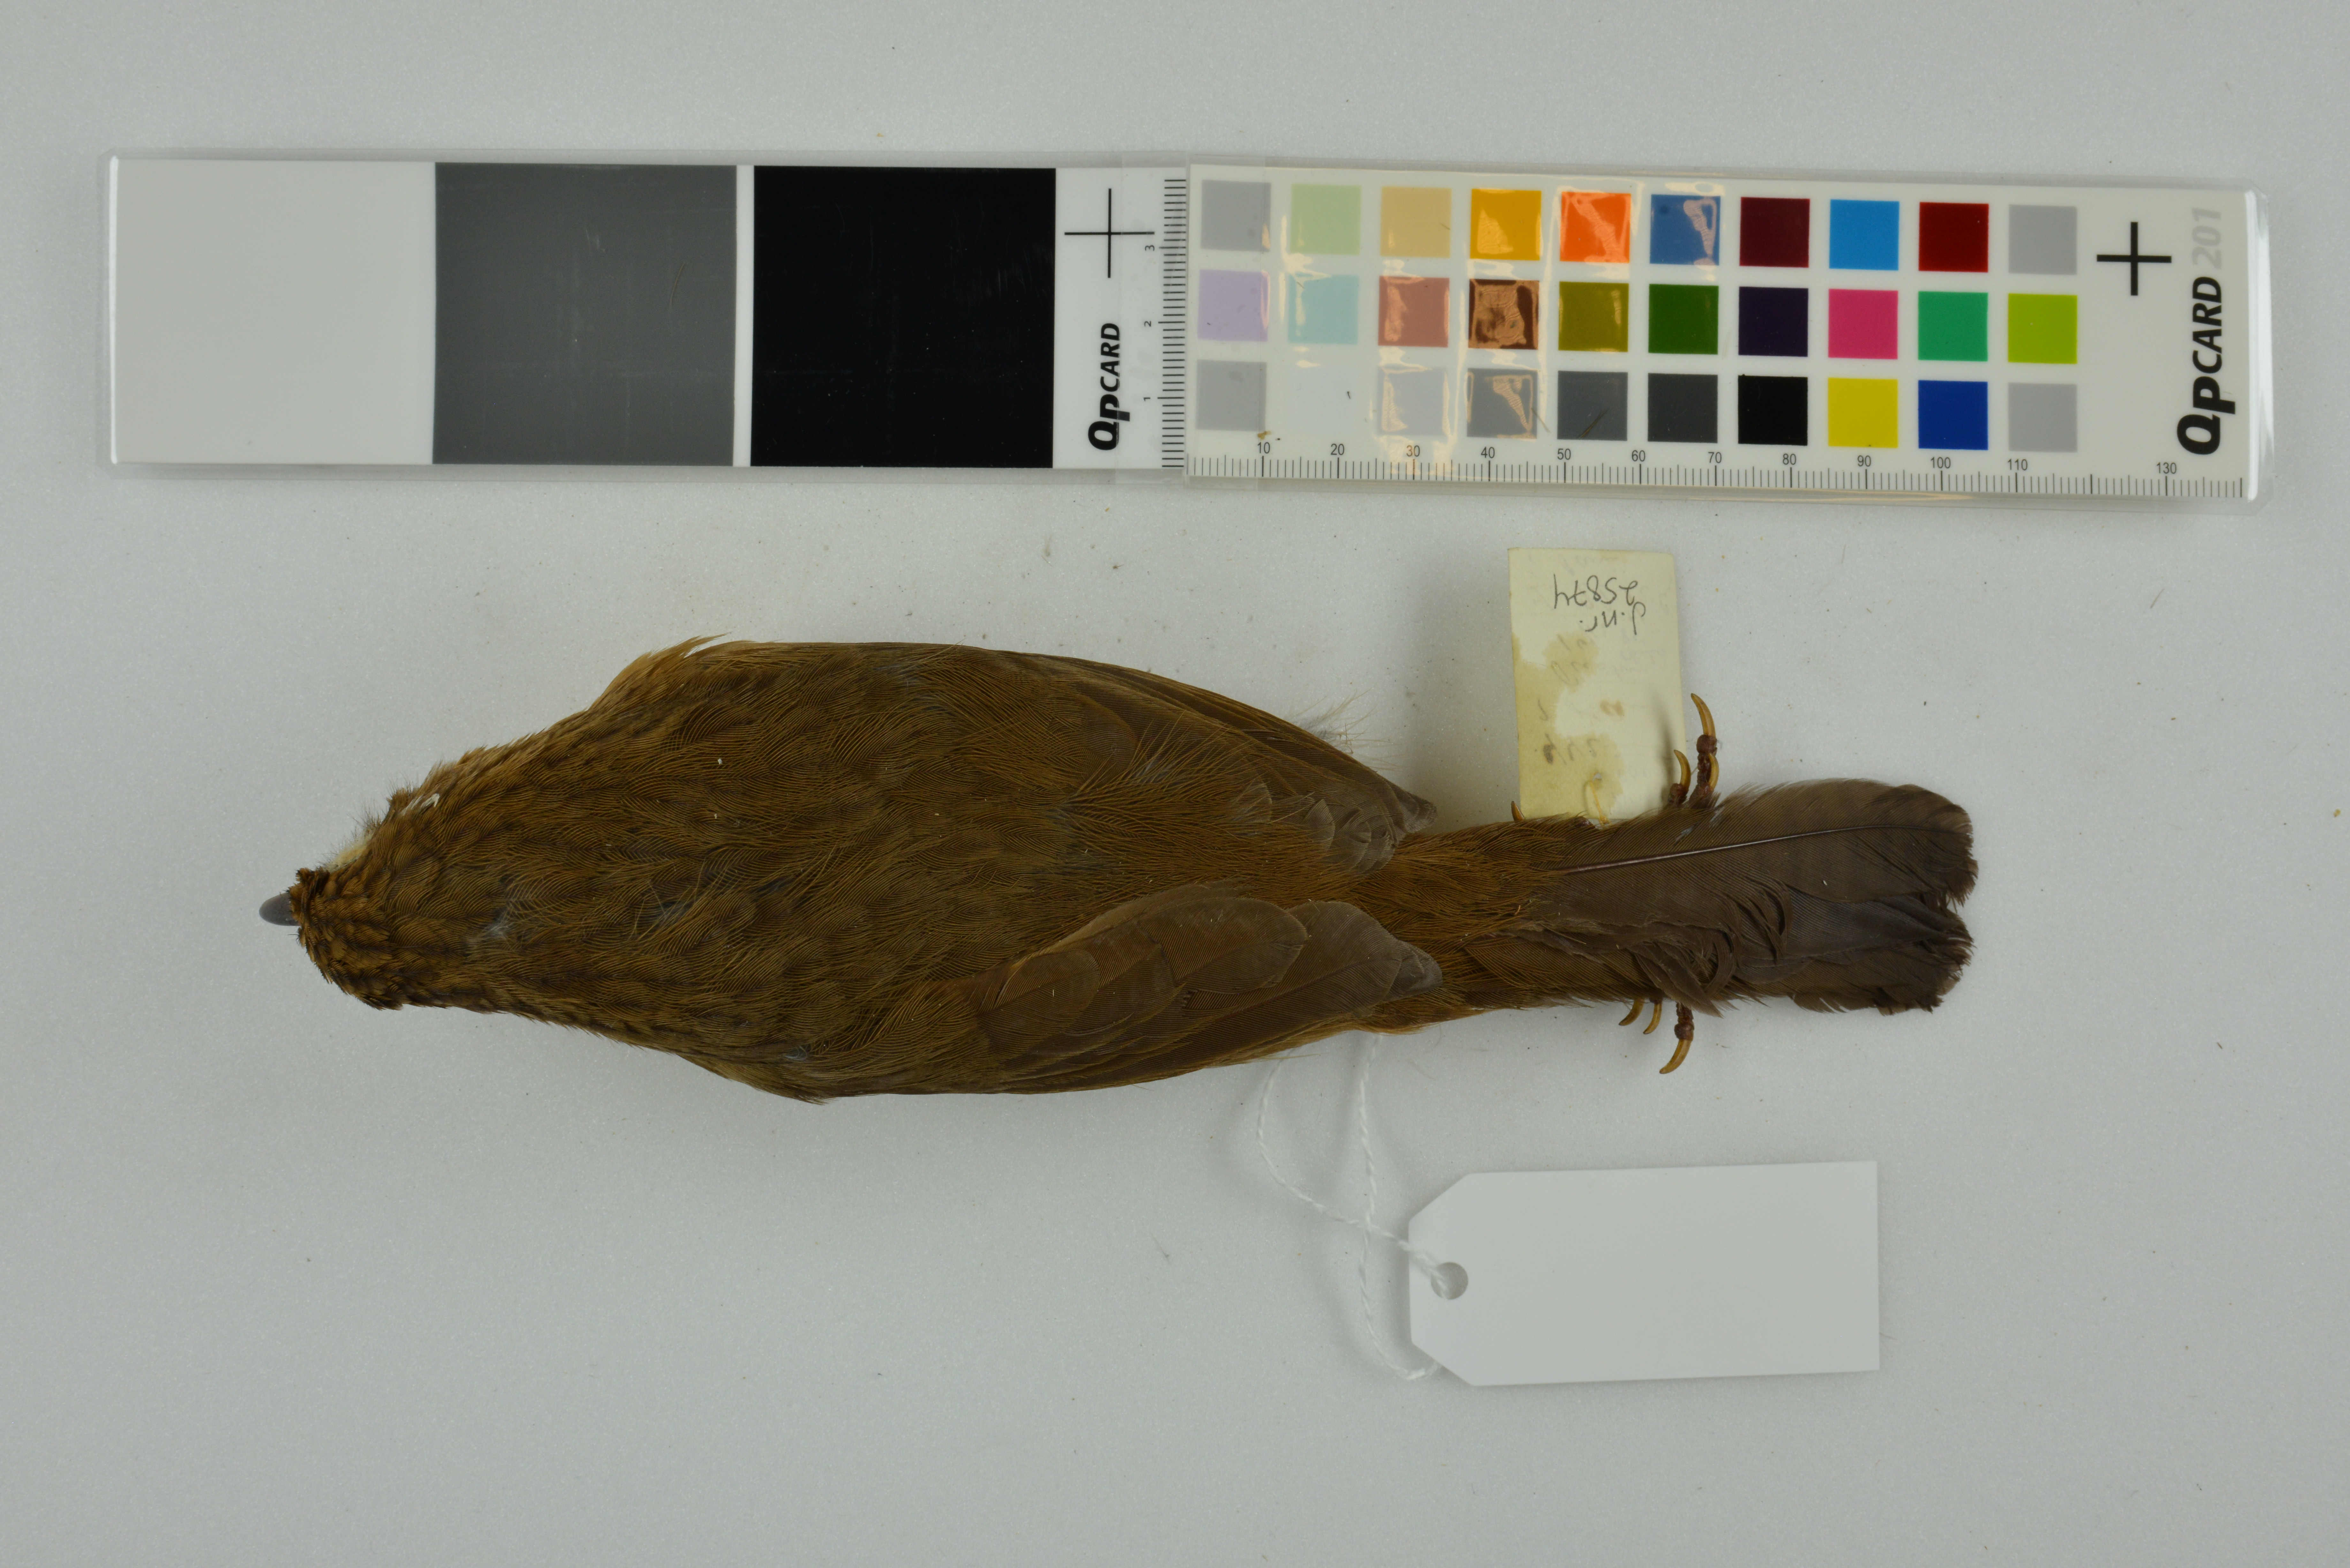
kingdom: Animalia
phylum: Chordata
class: Aves
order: Passeriformes
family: Leiothrichidae
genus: Garrulax
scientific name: Garrulax canorus
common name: Chinese hwamei
